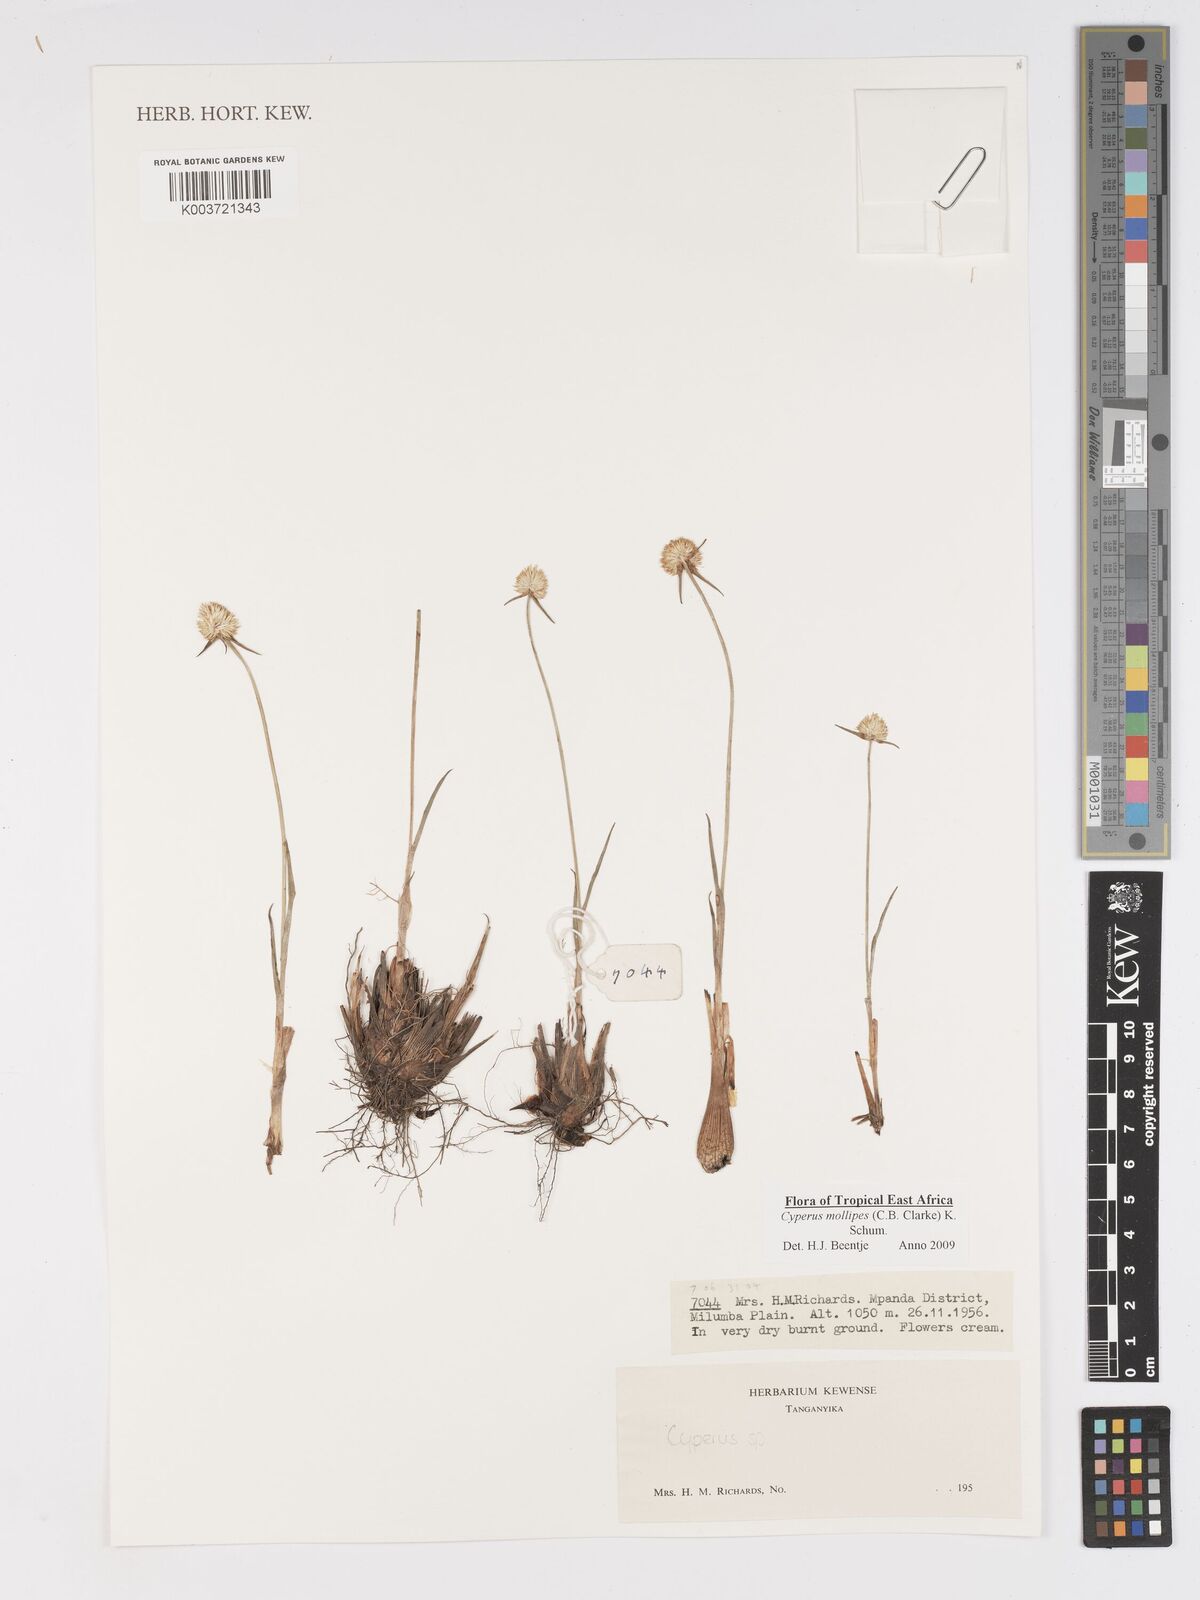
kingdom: Plantae
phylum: Tracheophyta
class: Liliopsida
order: Poales
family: Cyperaceae
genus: Cyperus
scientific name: Cyperus mollipes
